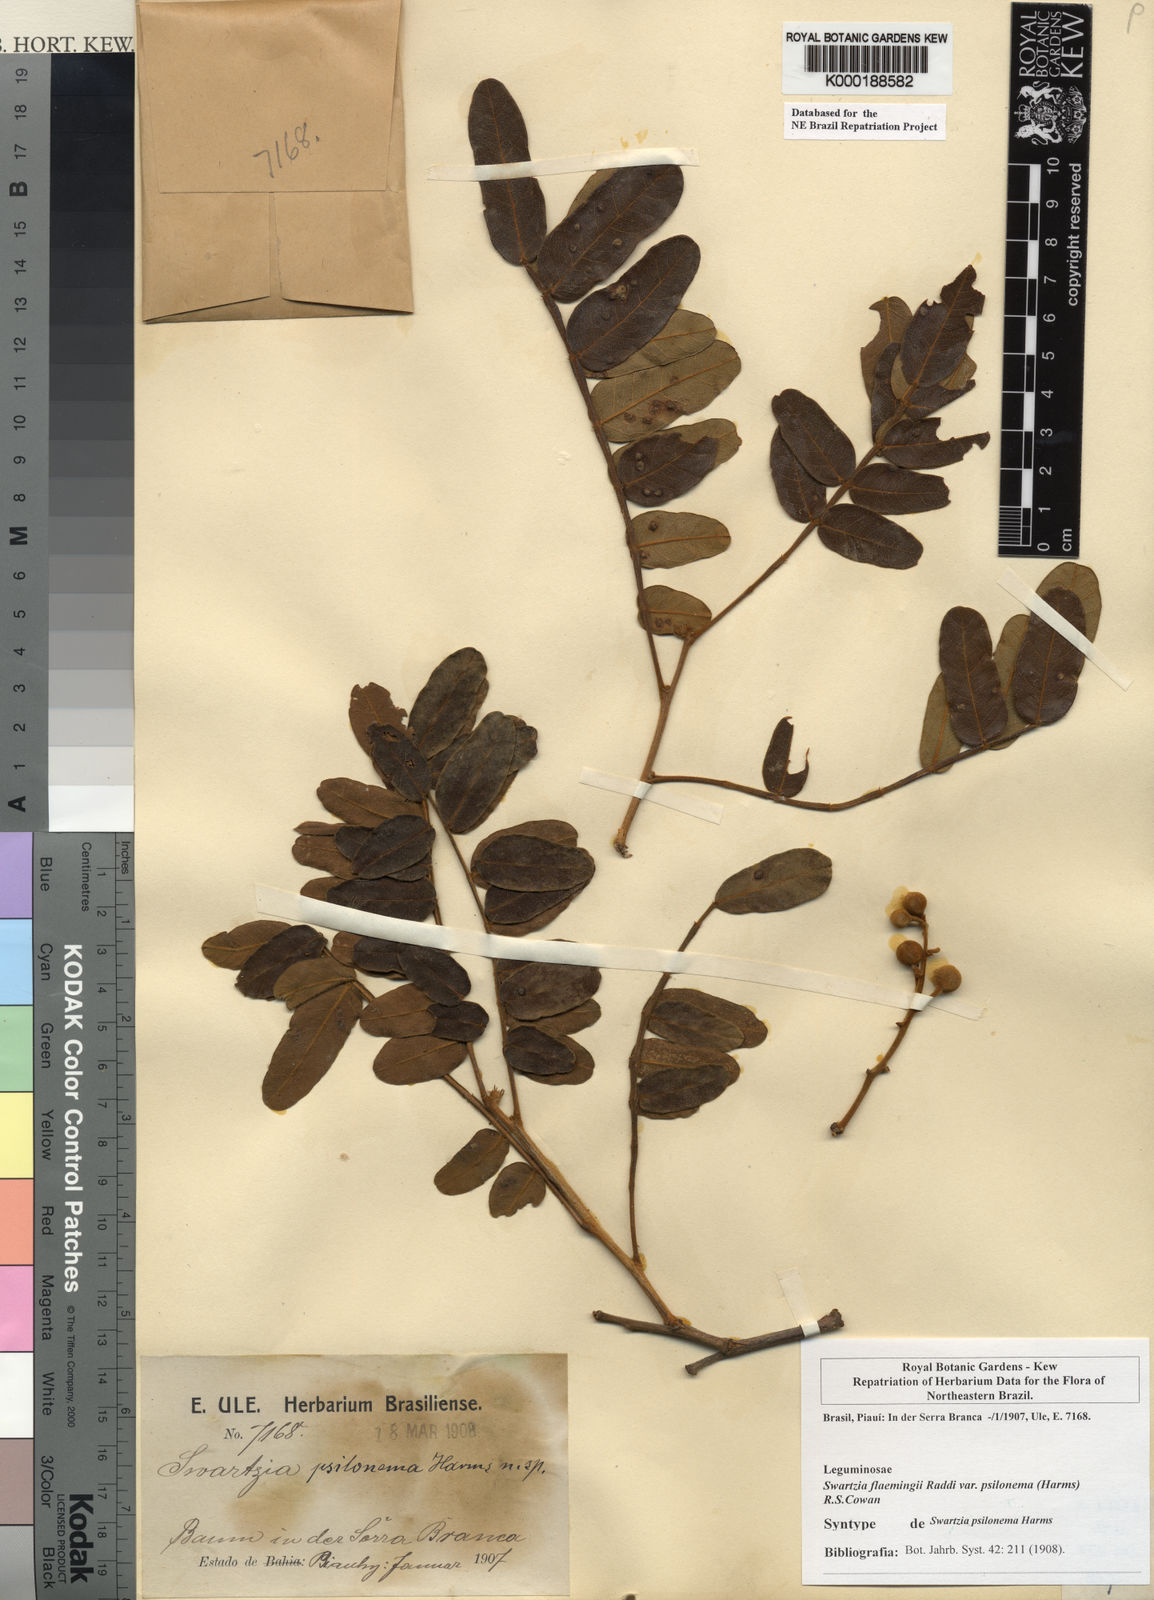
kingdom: Plantae
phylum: Tracheophyta
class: Magnoliopsida
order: Fabales
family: Fabaceae
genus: Swartzia
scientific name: Swartzia flaemingii
